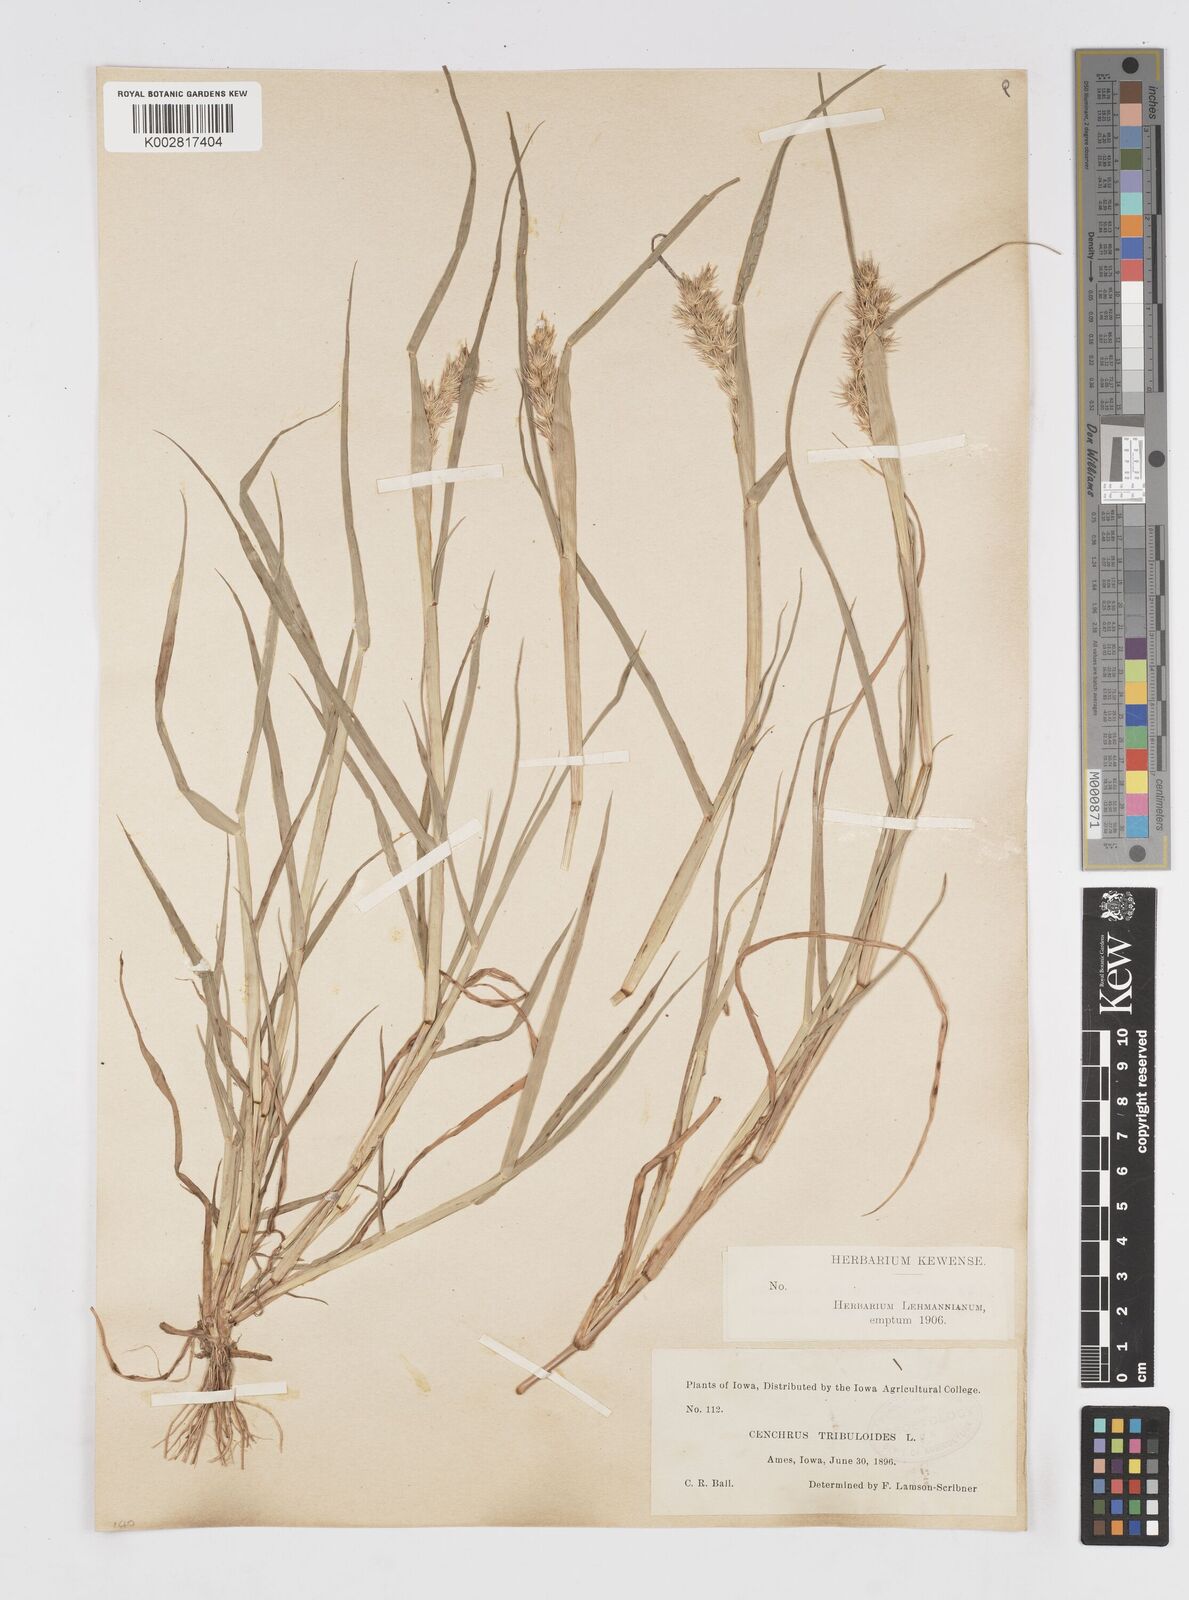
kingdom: Plantae
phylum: Tracheophyta
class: Liliopsida
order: Poales
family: Poaceae
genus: Cenchrus
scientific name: Cenchrus longispinus
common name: Mat sandbur
